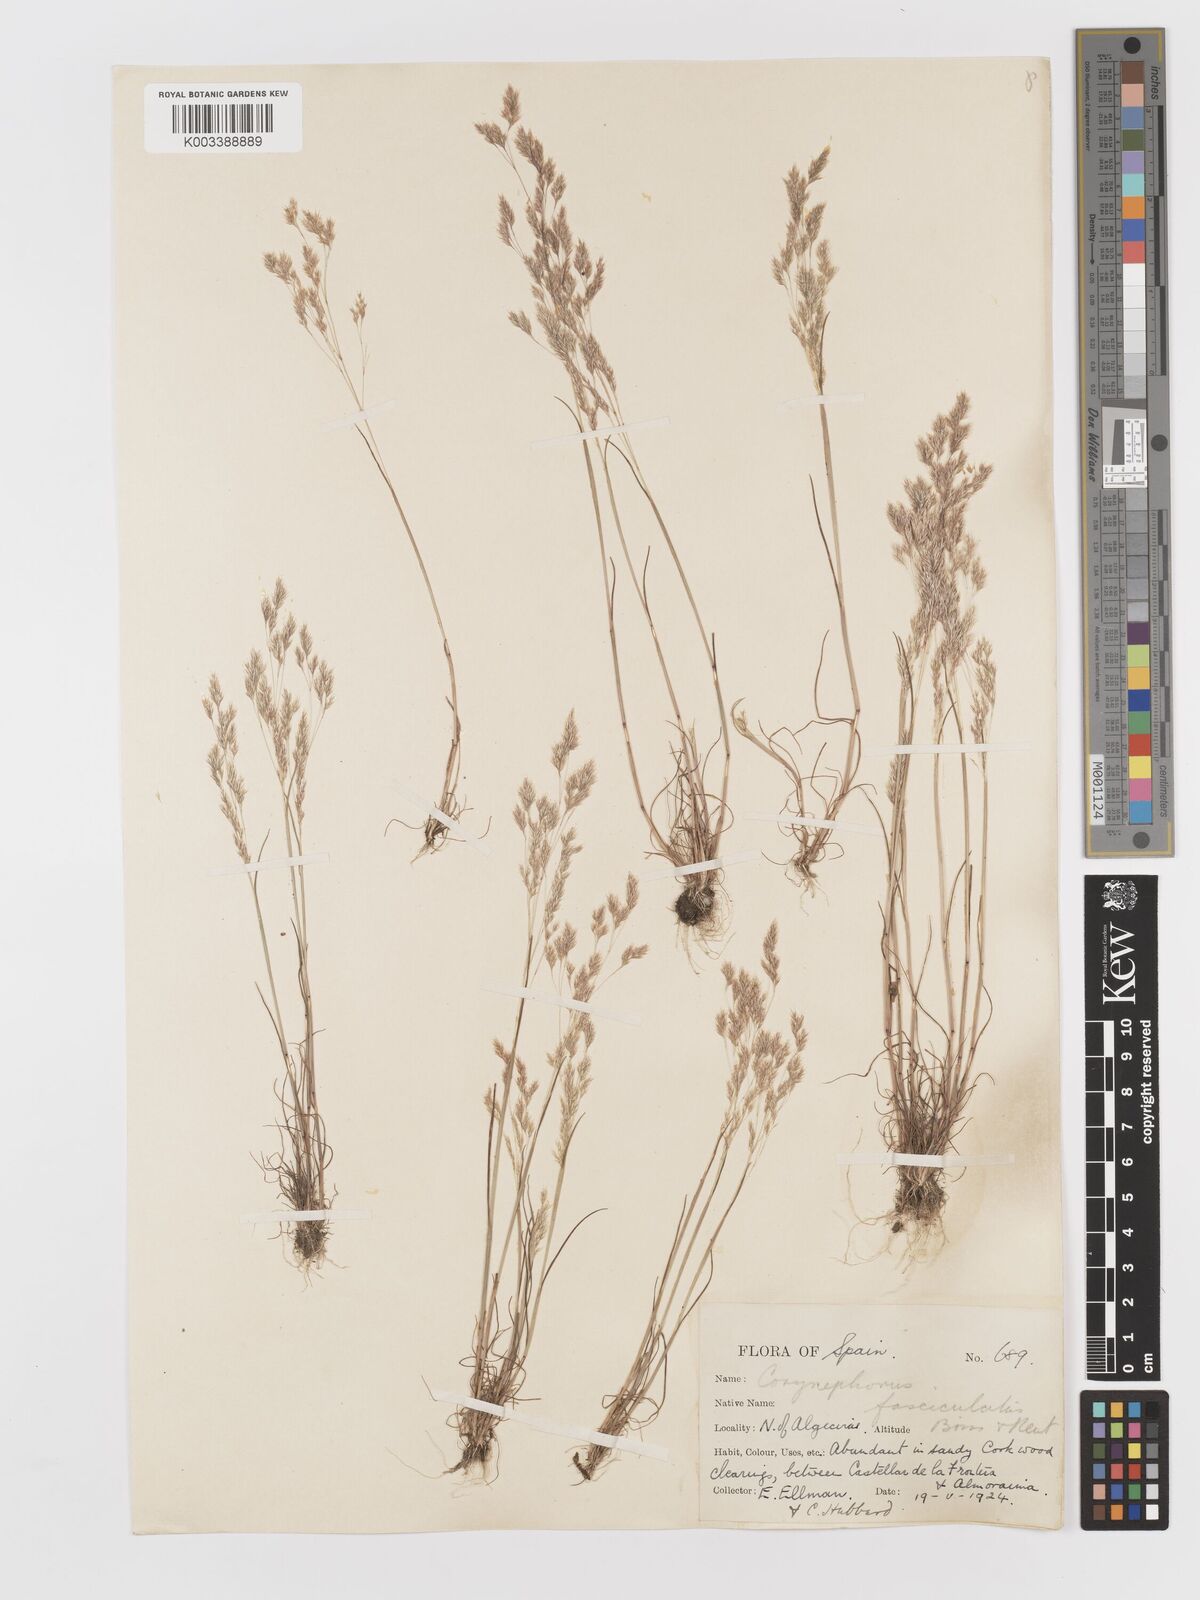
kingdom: Plantae
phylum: Tracheophyta
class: Liliopsida
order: Poales
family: Poaceae
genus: Corynephorus
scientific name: Corynephorus fasciculatus
